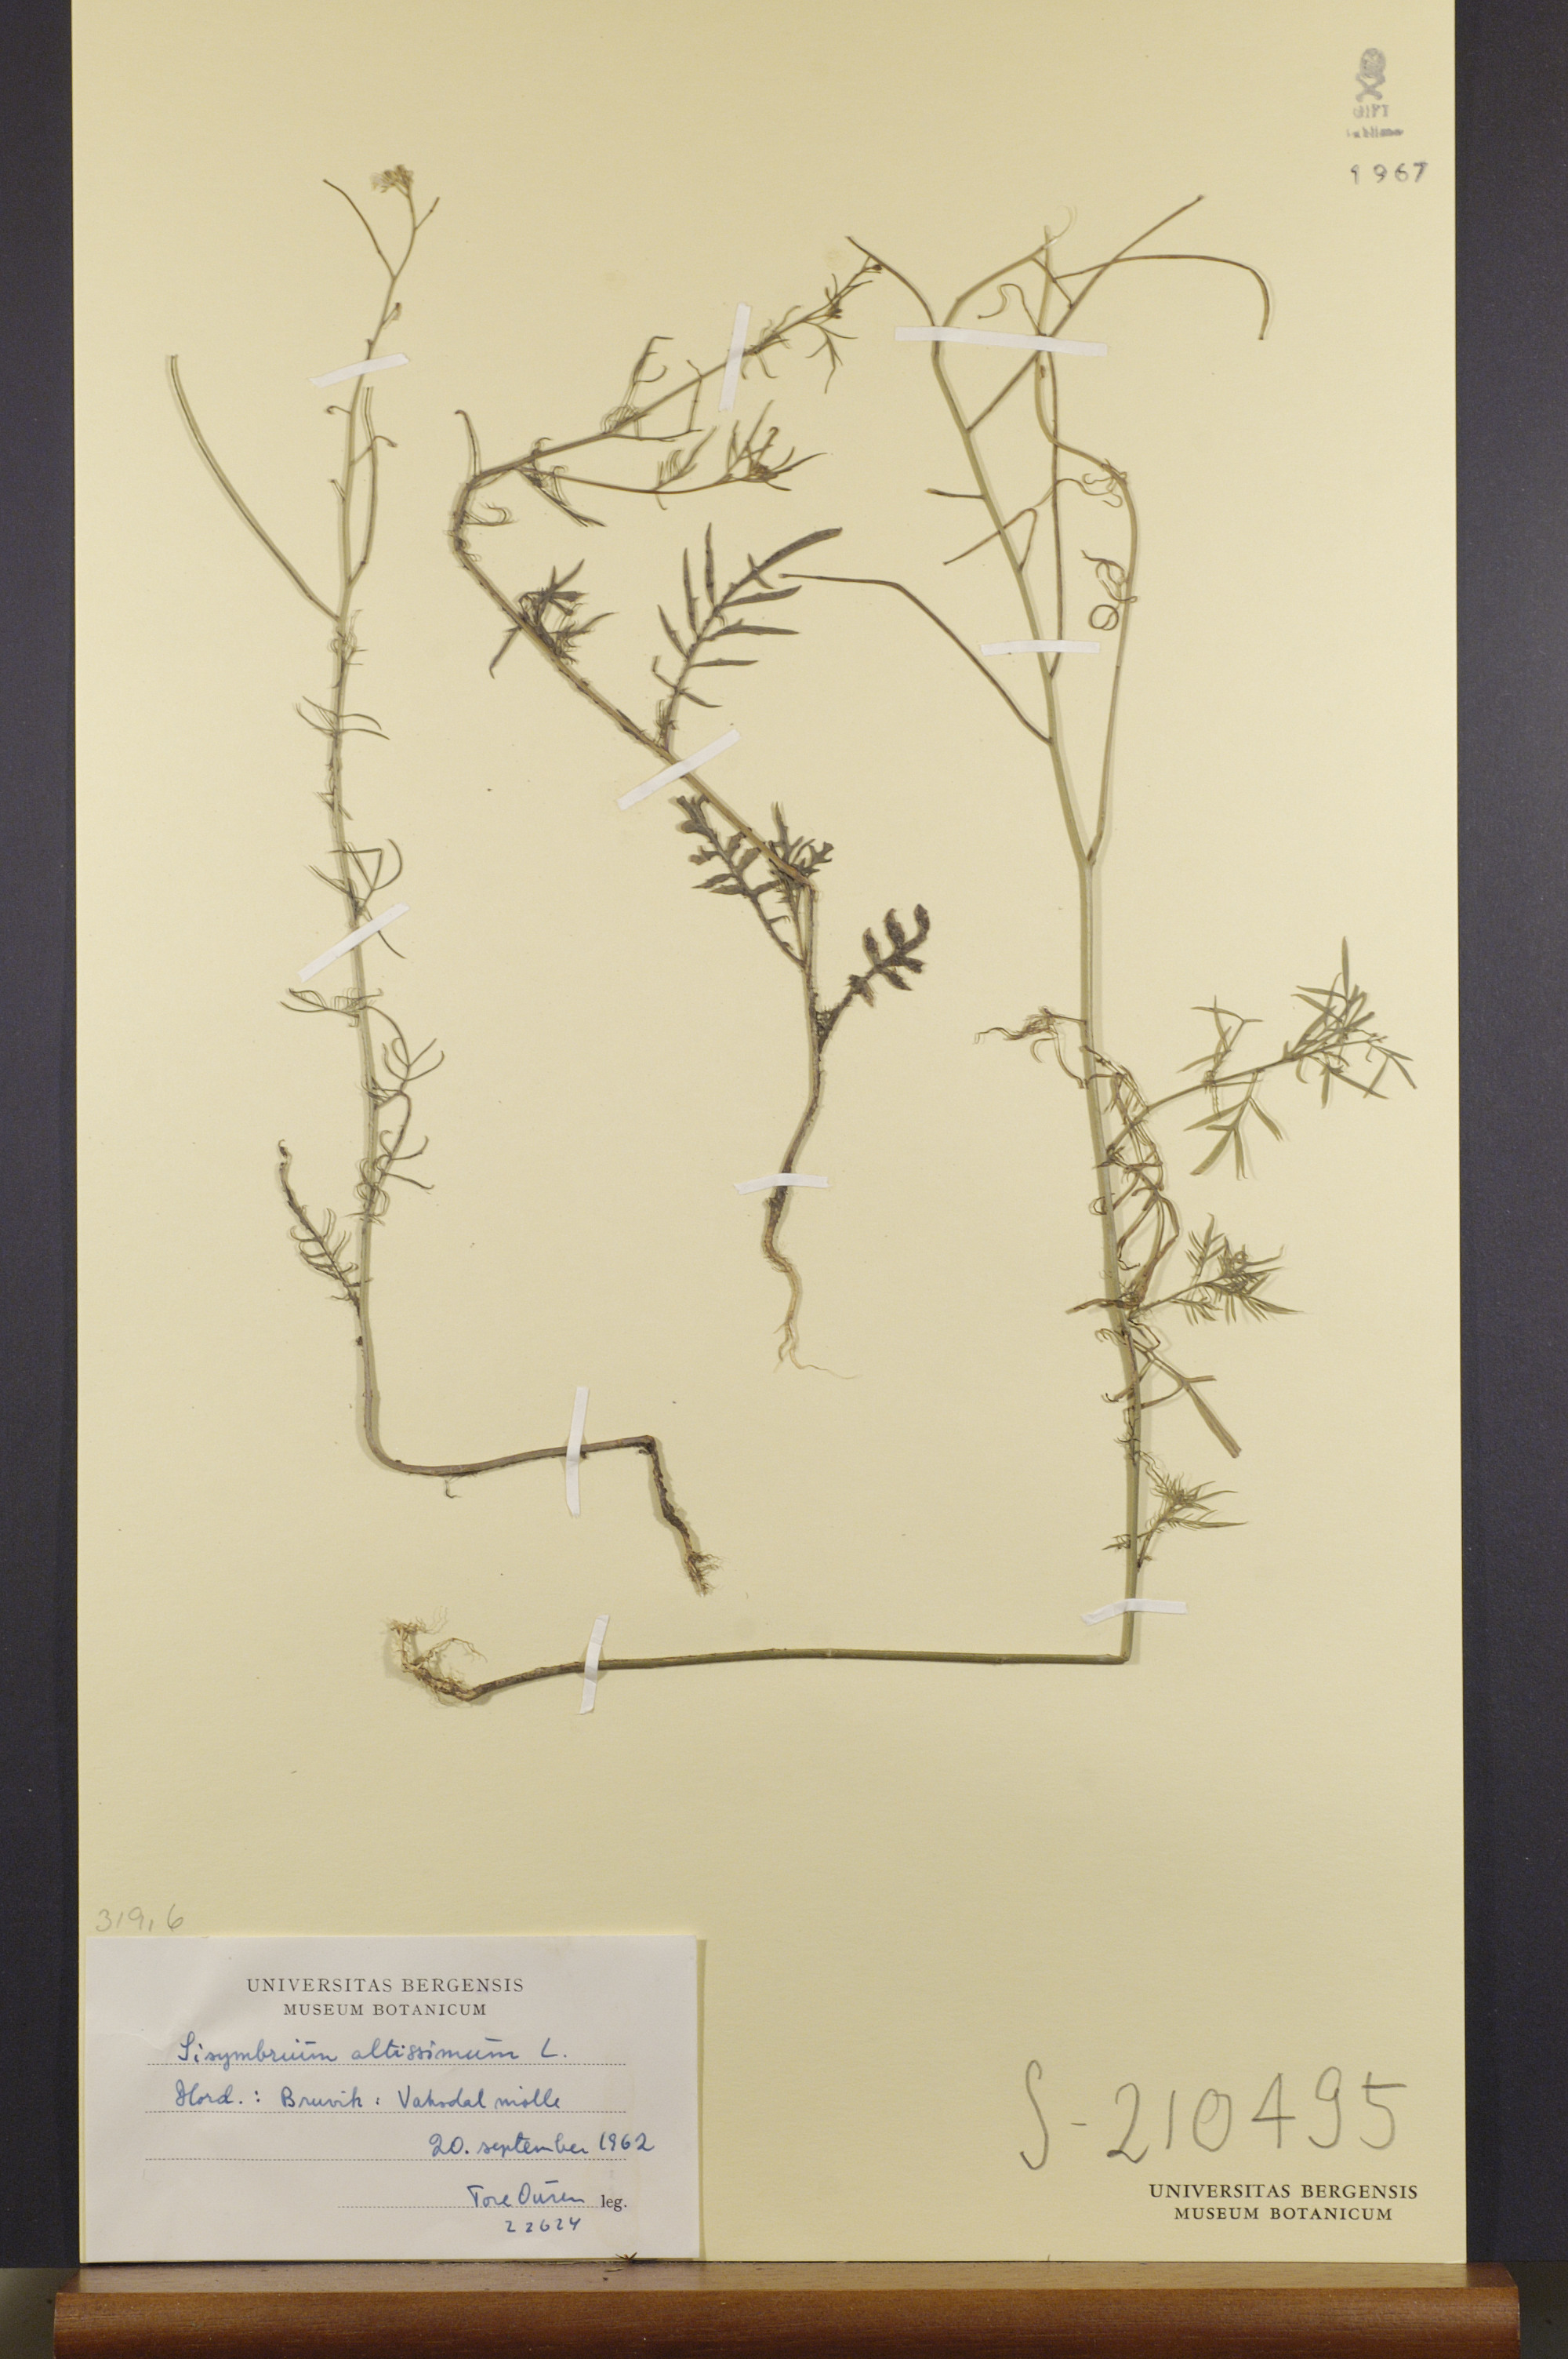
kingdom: Plantae
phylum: Tracheophyta
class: Magnoliopsida
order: Brassicales
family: Brassicaceae
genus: Sisymbrium
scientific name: Sisymbrium altissimum
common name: Tall rocket
